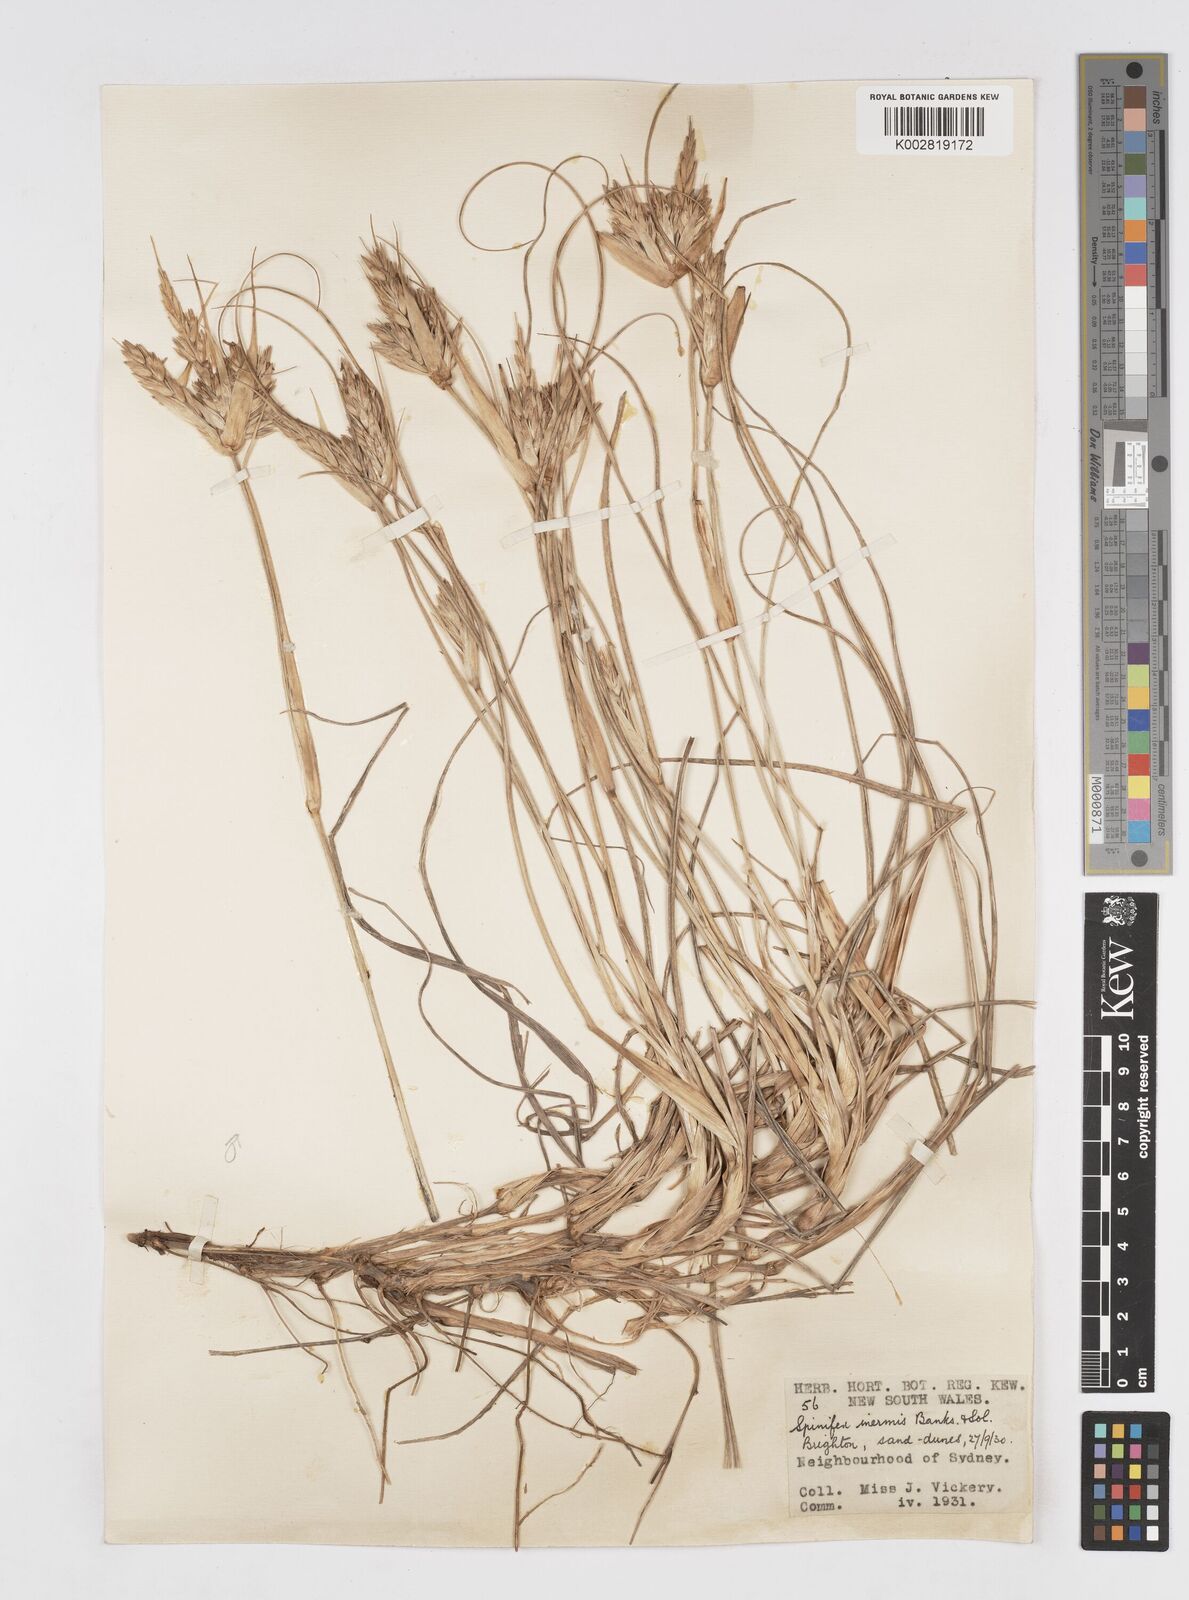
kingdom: Plantae
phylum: Tracheophyta
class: Liliopsida
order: Poales
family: Poaceae
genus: Spinifex
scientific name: Spinifex hirsutus
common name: Hairy spinifex
